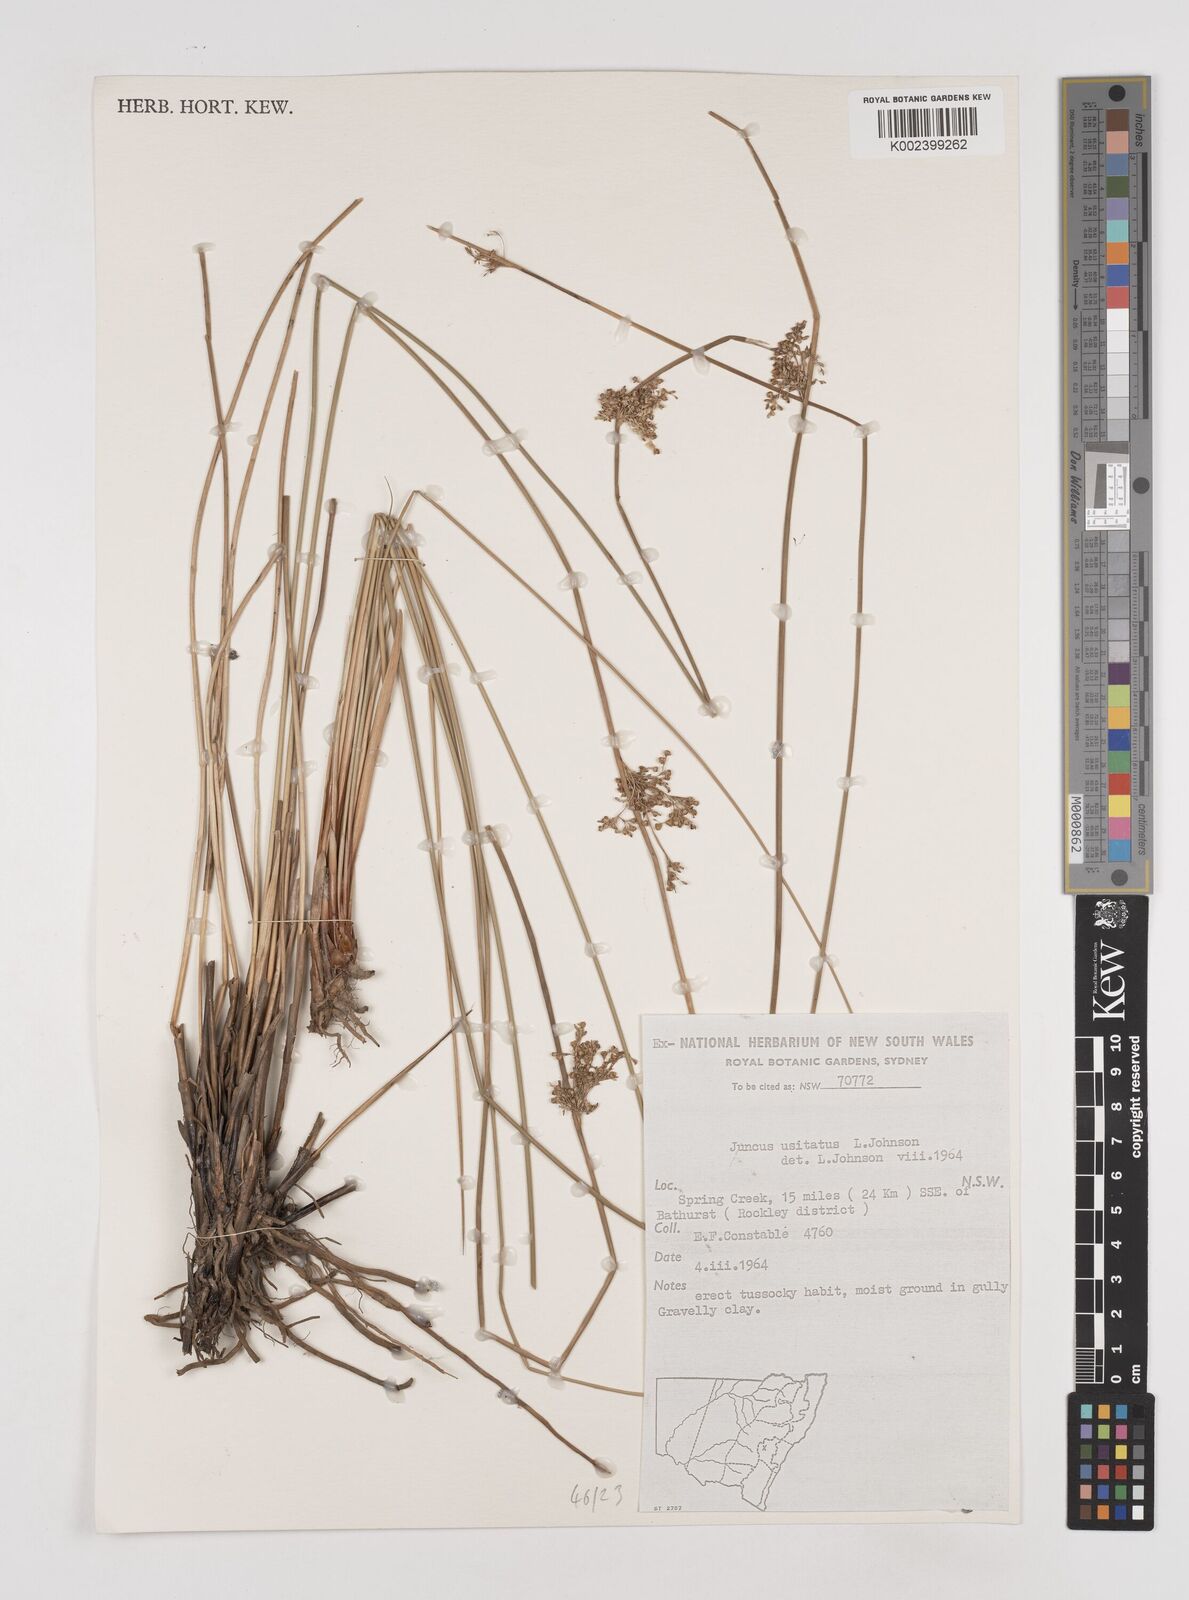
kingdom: Plantae
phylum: Tracheophyta
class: Liliopsida
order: Poales
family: Juncaceae
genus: Juncus
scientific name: Juncus usitatus
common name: Rush
